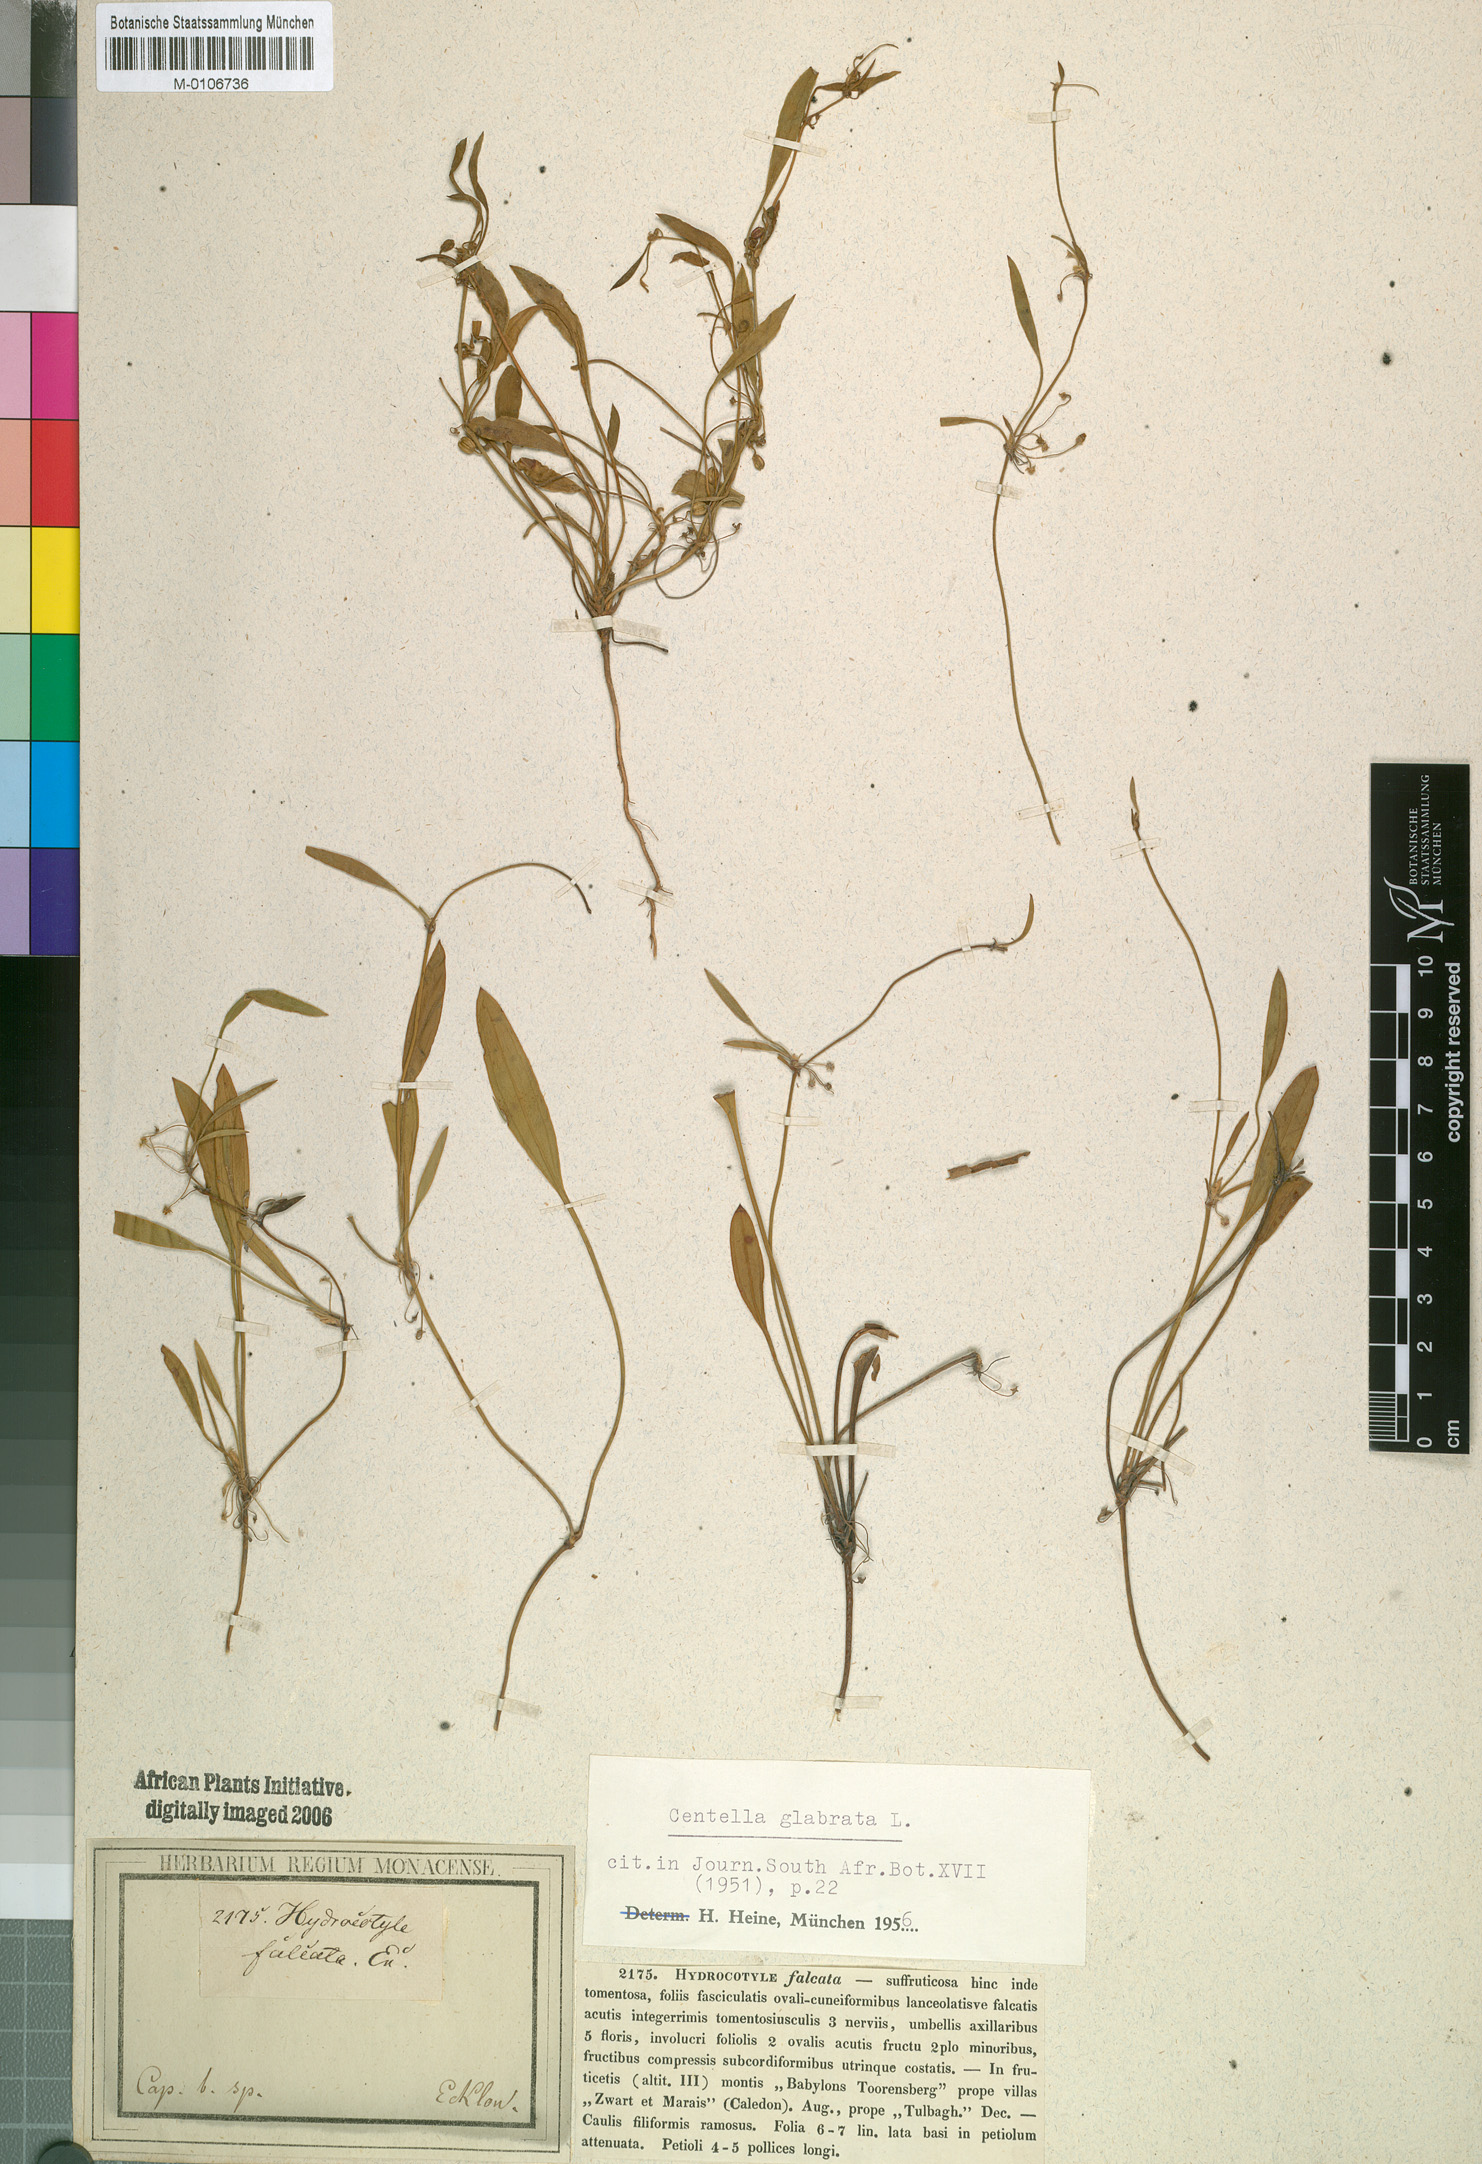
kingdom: Plantae
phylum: Tracheophyta
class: Magnoliopsida
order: Apiales
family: Apiaceae
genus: Centella
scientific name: Centella glabrata
